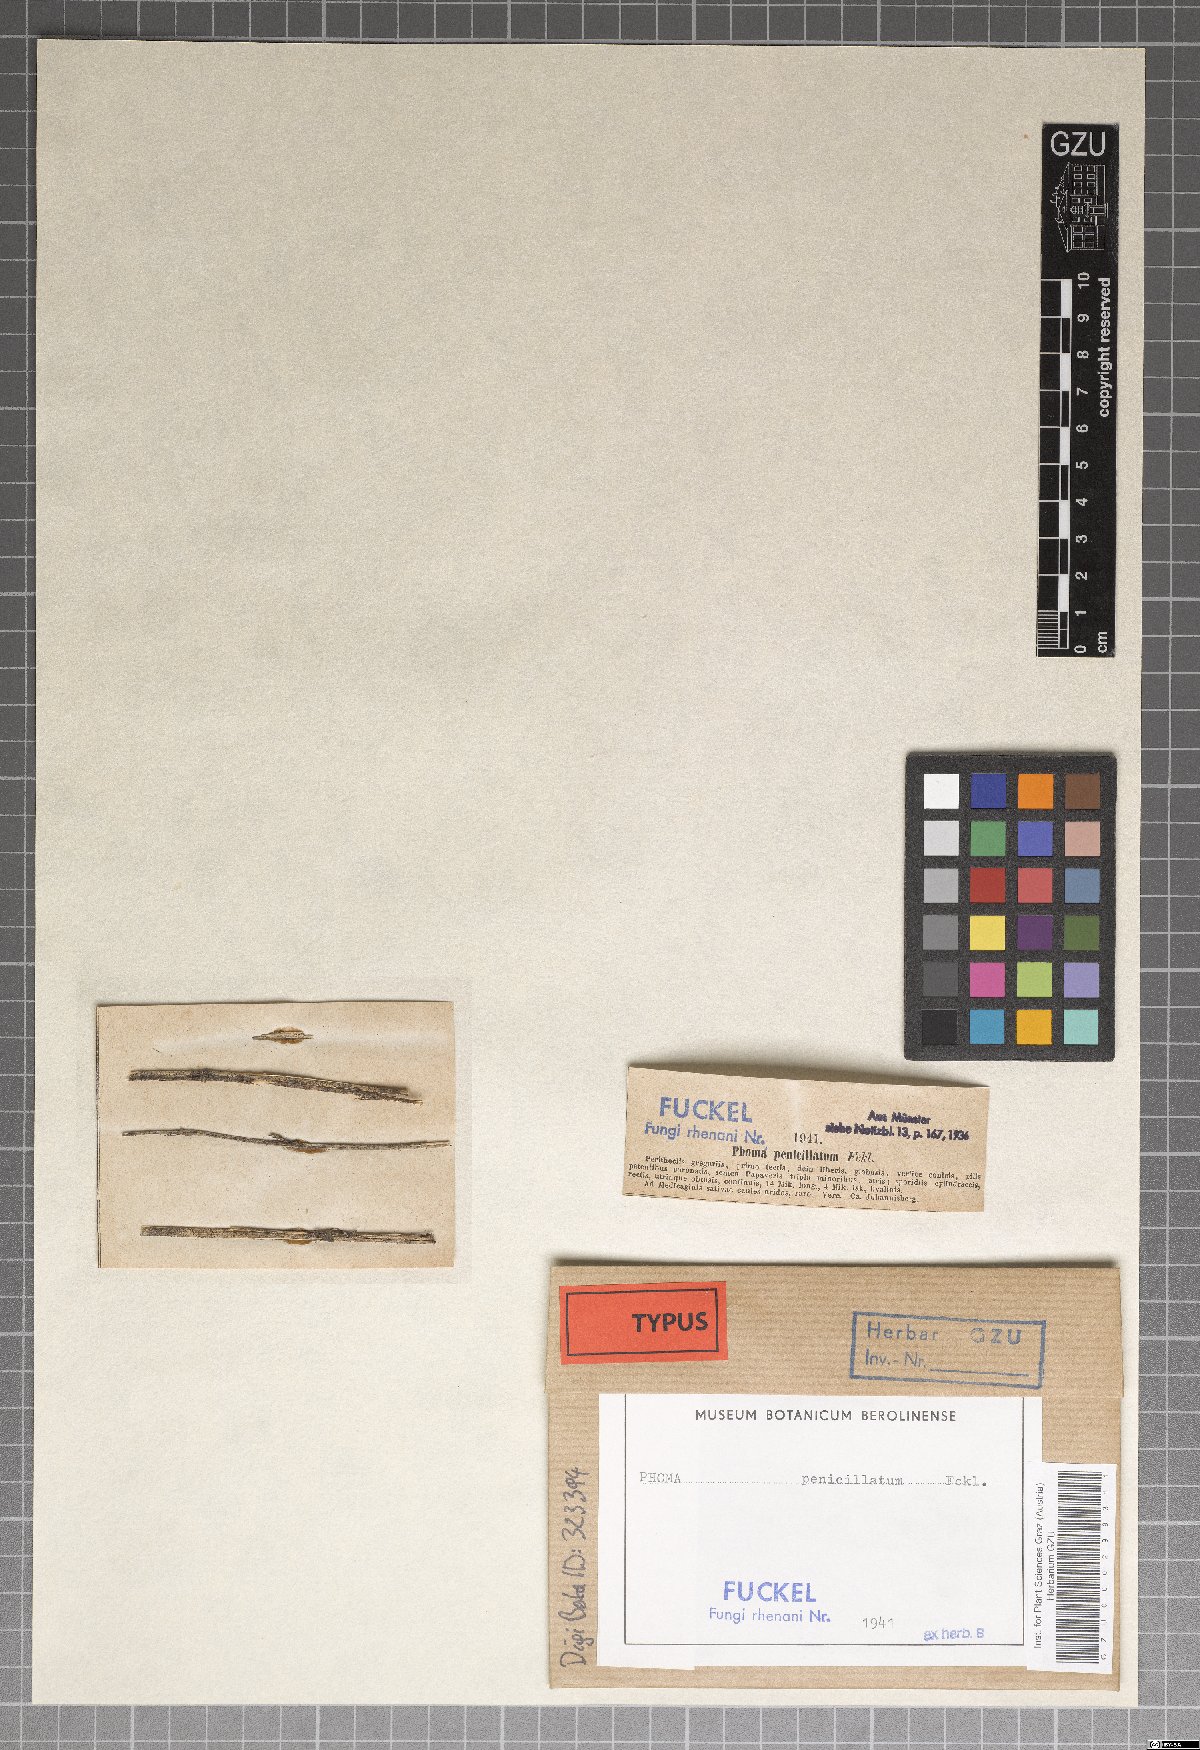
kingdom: Fungi
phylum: Ascomycota
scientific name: Ascomycota
